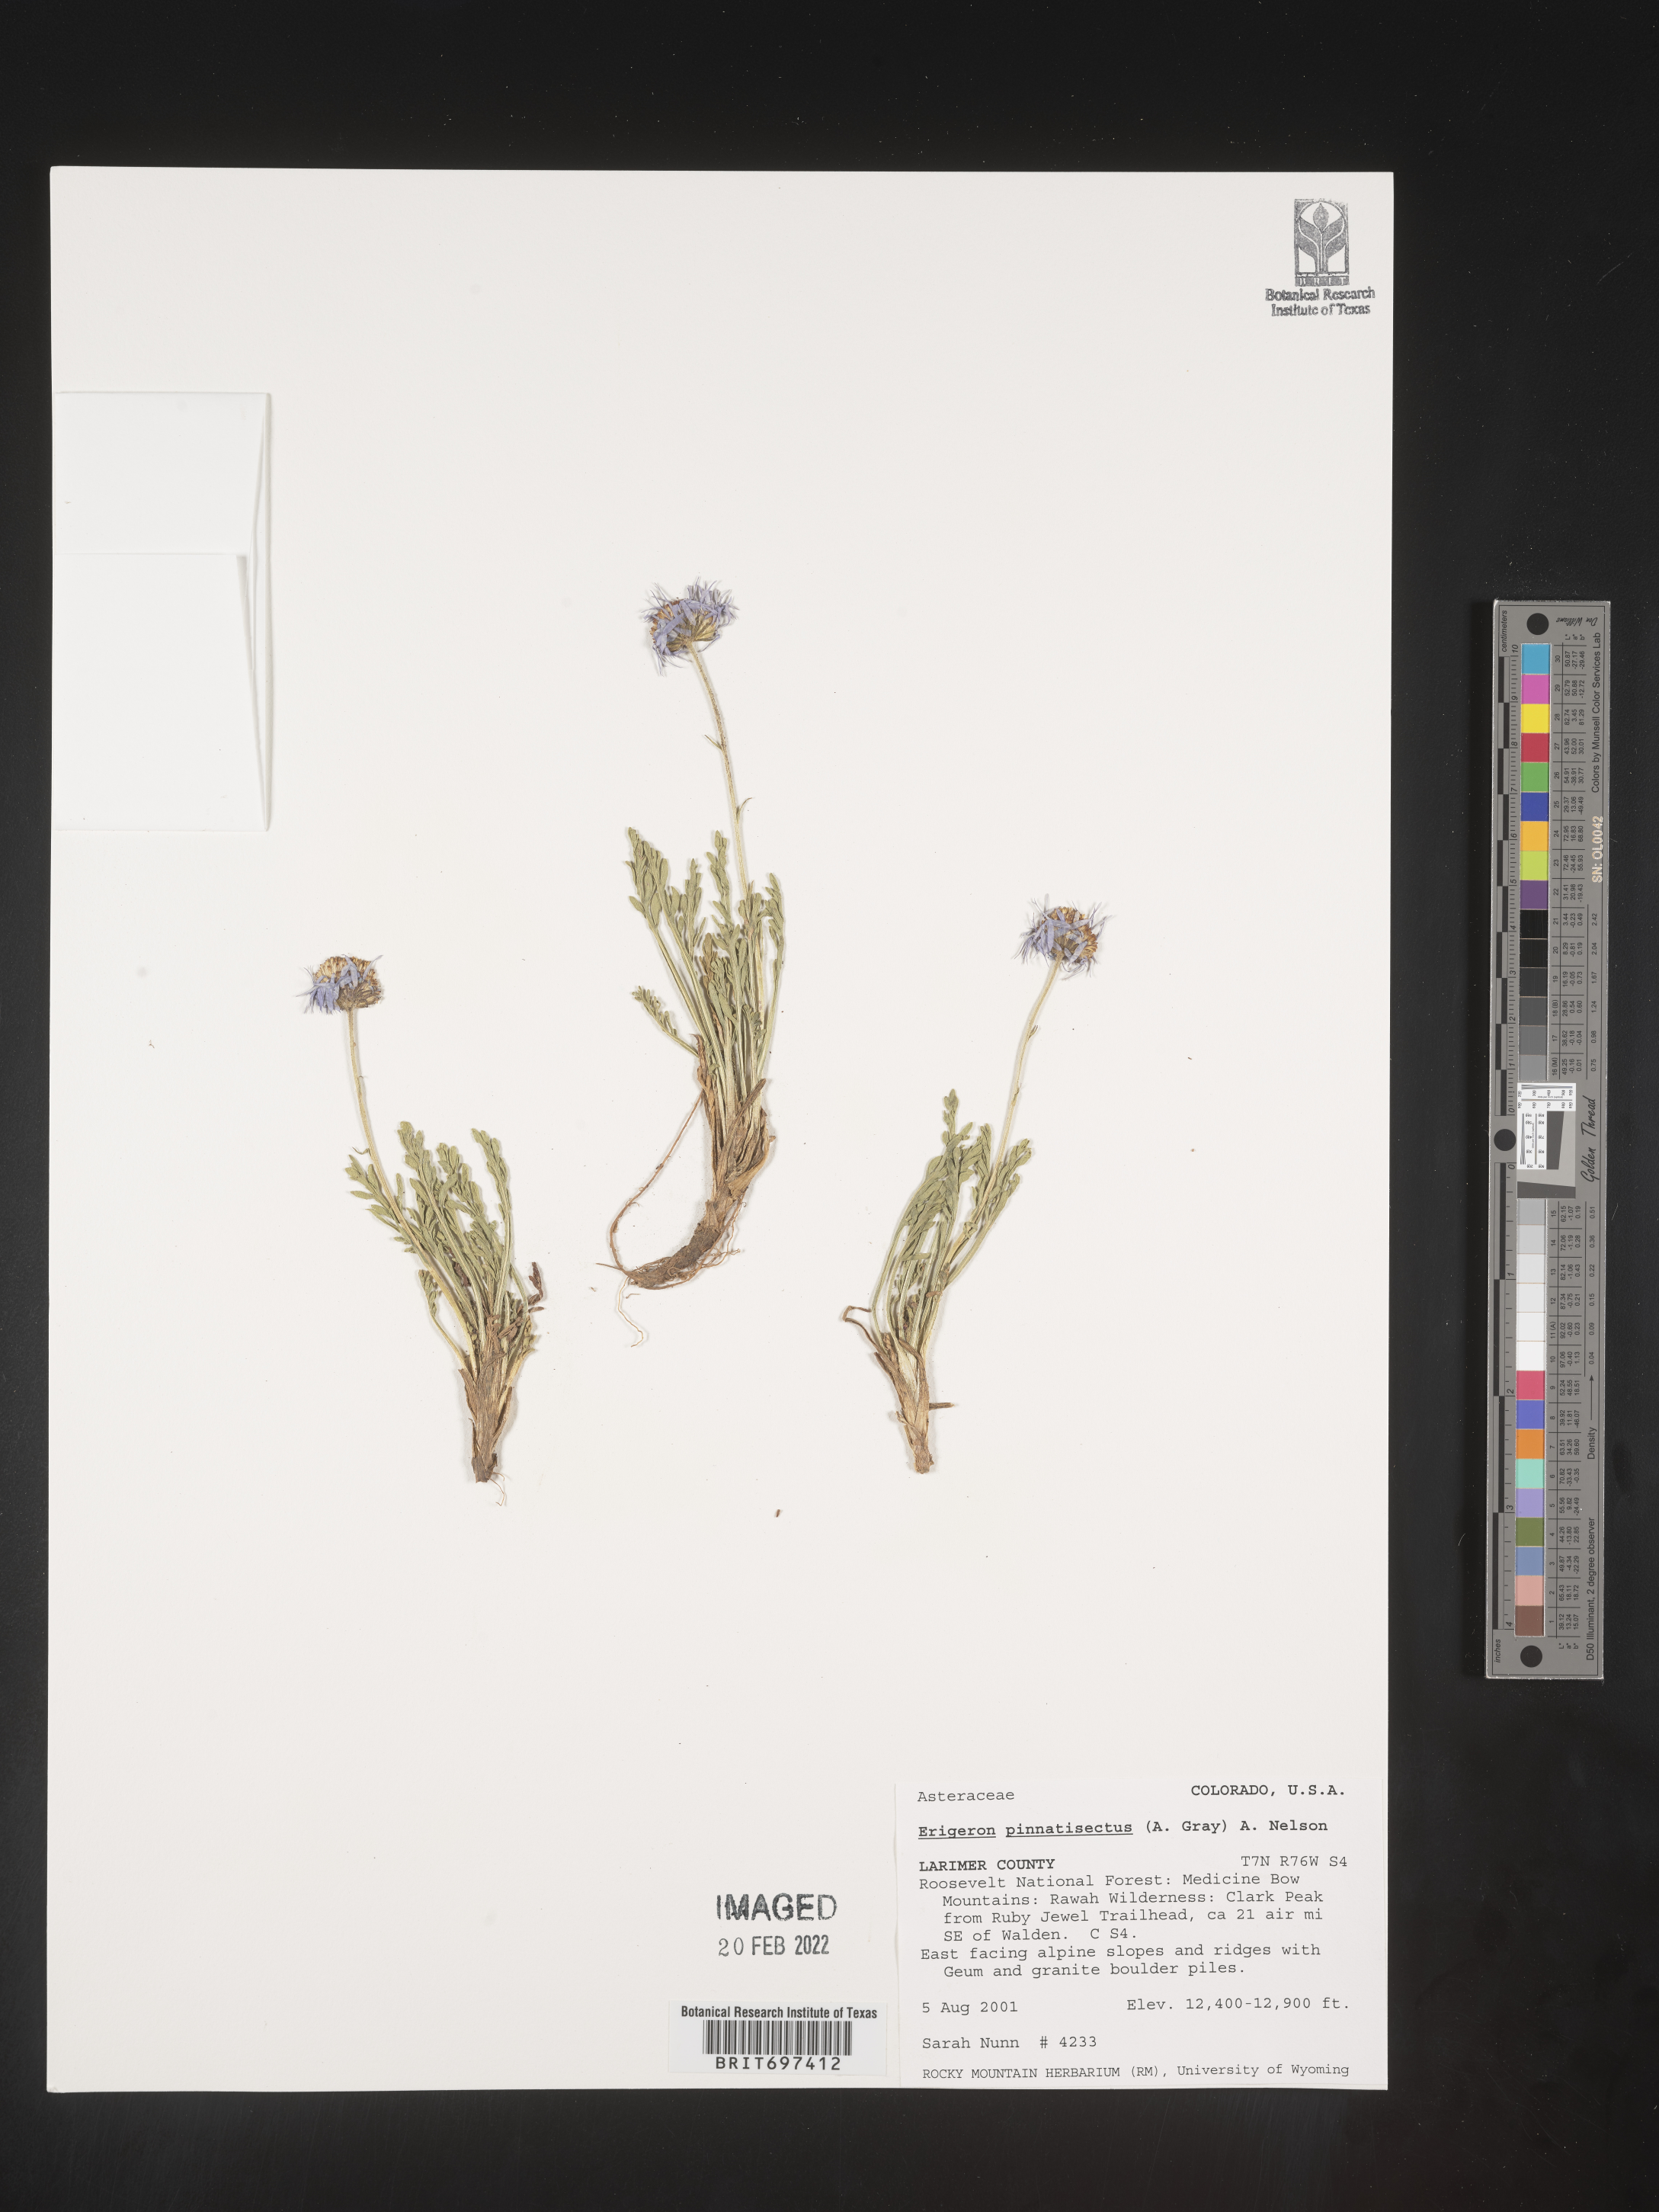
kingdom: Plantae
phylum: Tracheophyta
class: Magnoliopsida
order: Asterales
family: Asteraceae
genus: Erigeron
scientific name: Erigeron pinnatisectus
